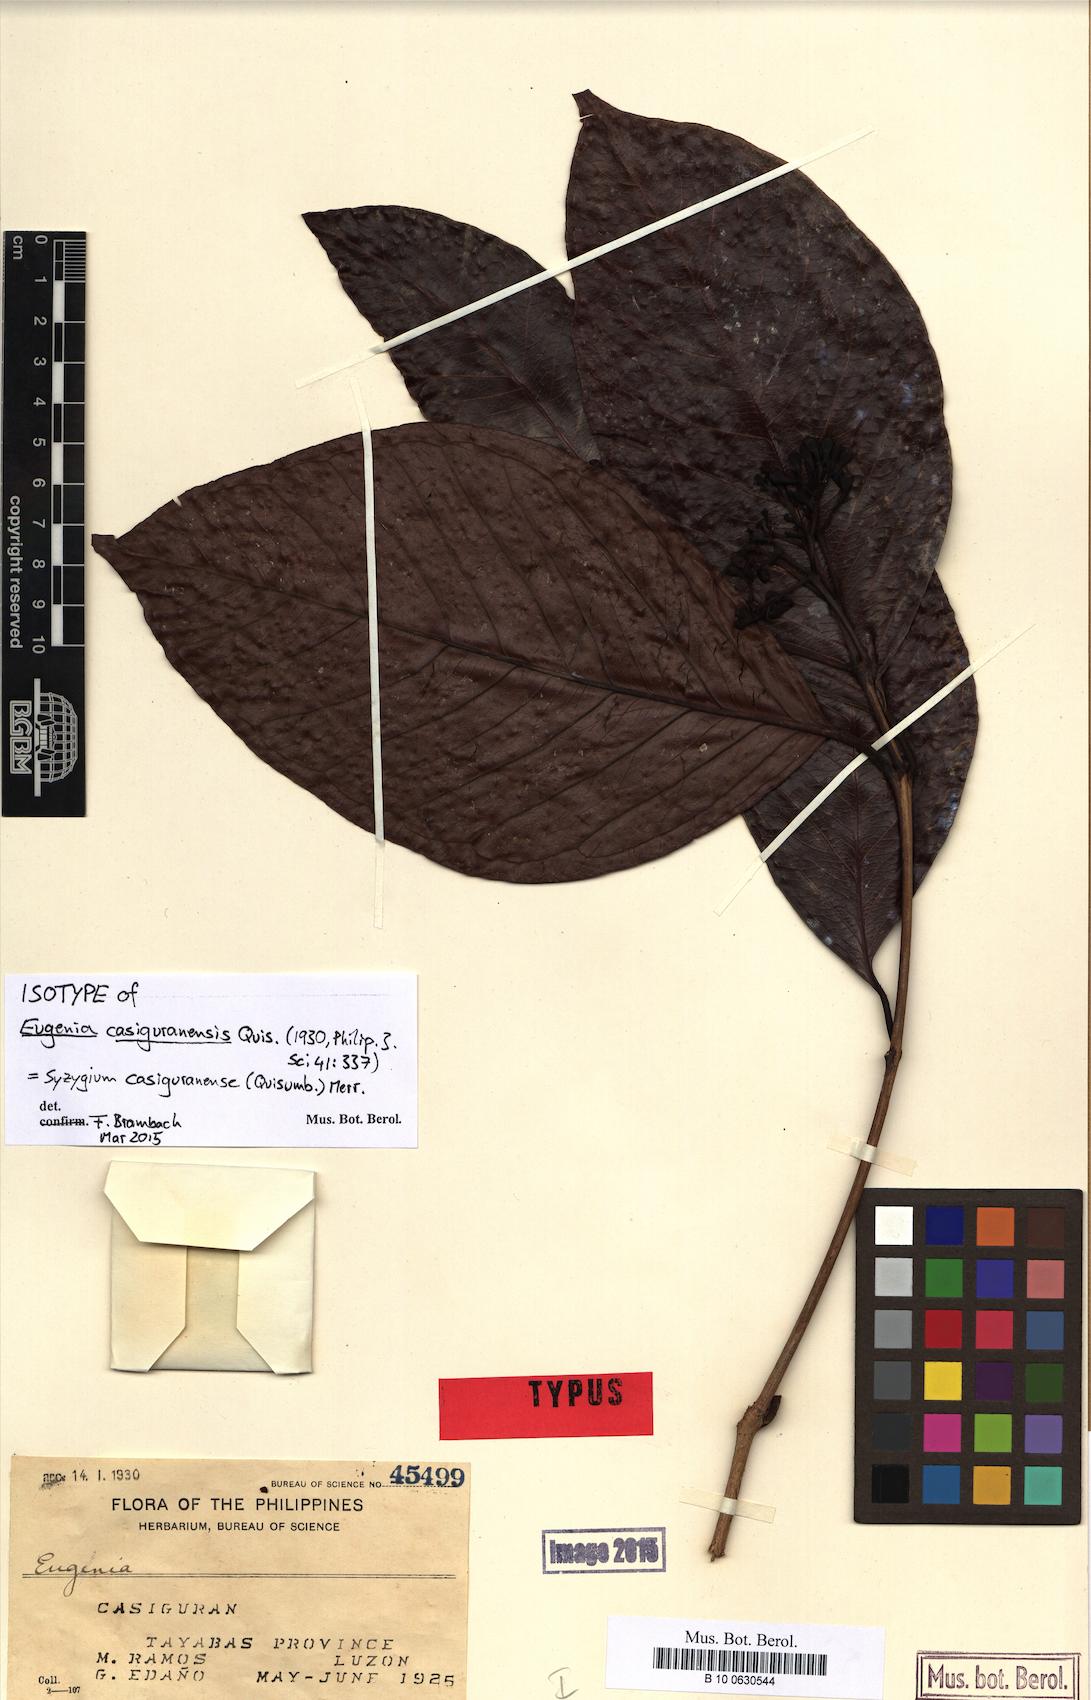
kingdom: Plantae
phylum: Tracheophyta
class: Magnoliopsida
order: Myrtales
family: Myrtaceae
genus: Syzygium
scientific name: Syzygium casiguranense
